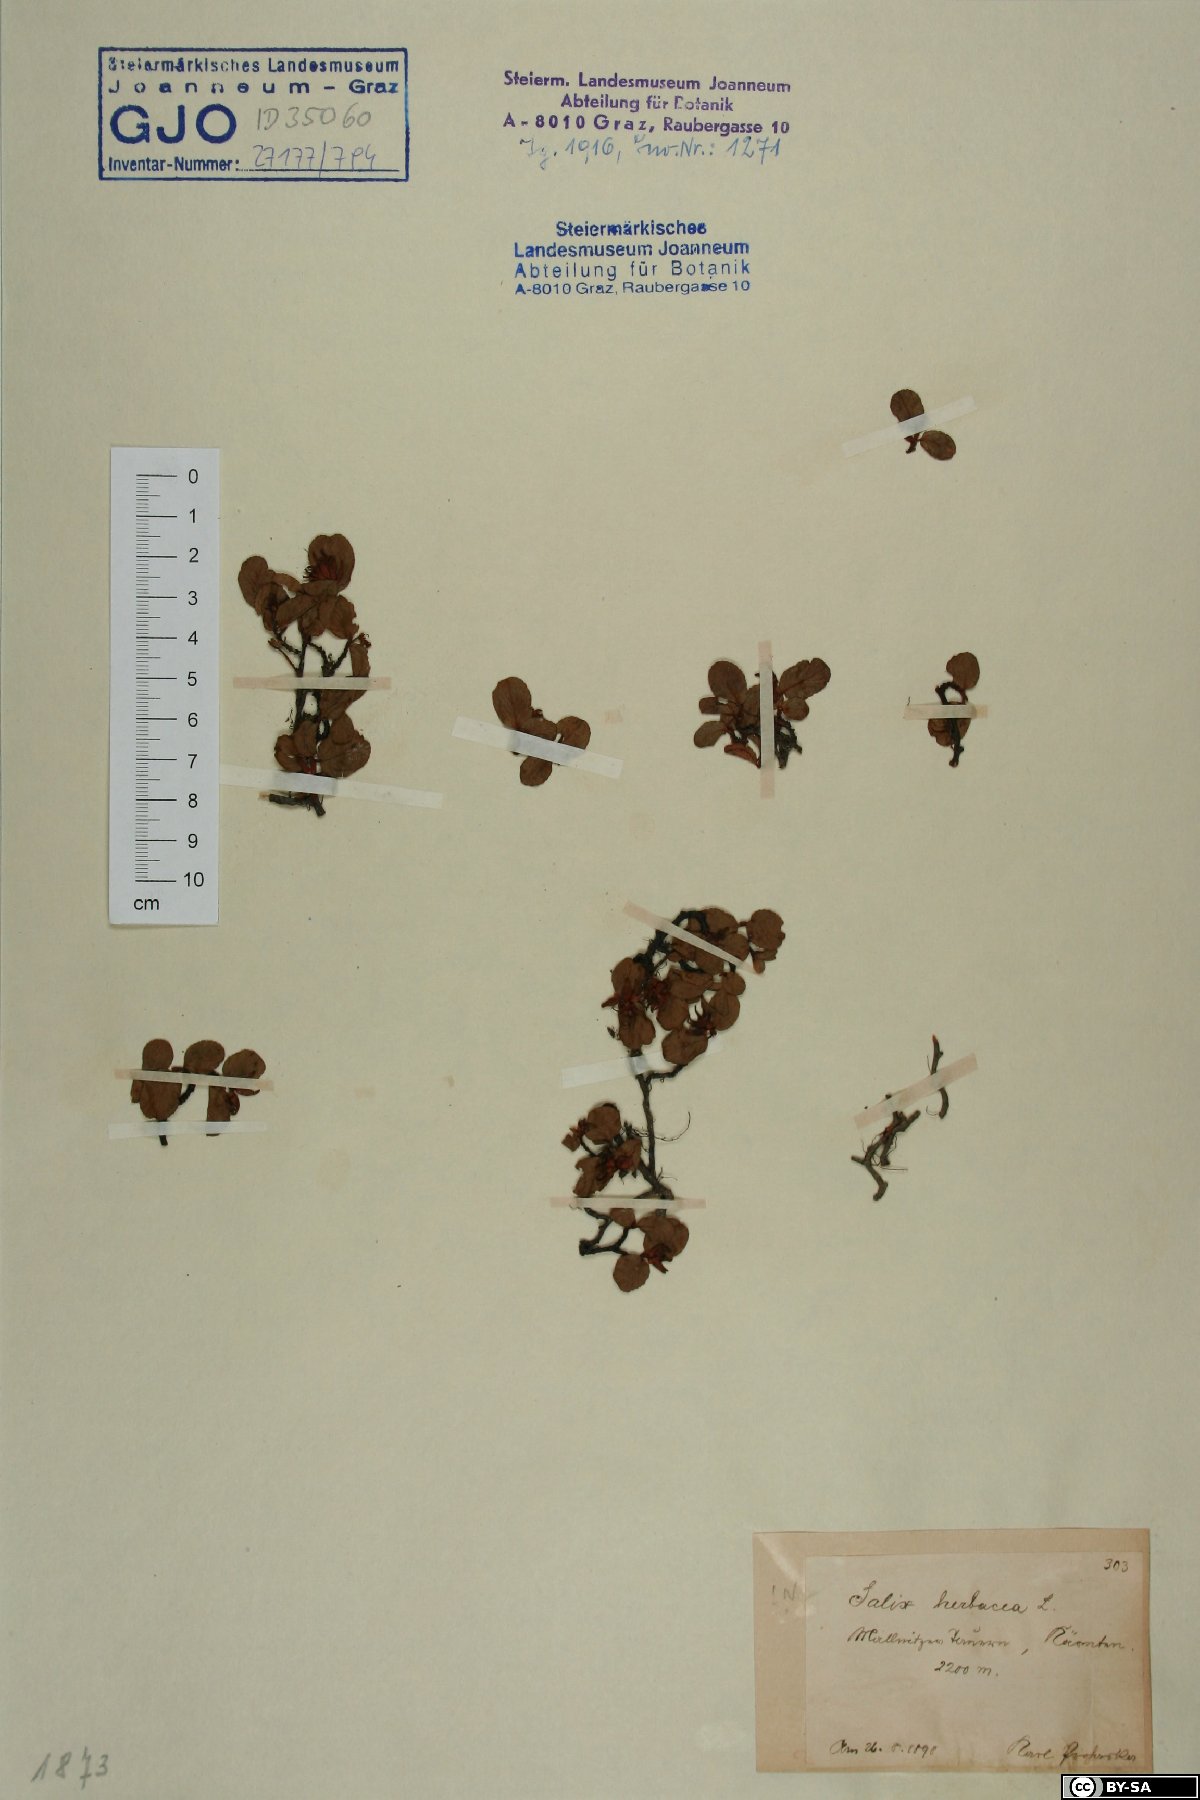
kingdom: Plantae
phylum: Tracheophyta
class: Magnoliopsida
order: Malpighiales
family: Salicaceae
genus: Salix
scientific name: Salix herbacea
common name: Dwarf willow
